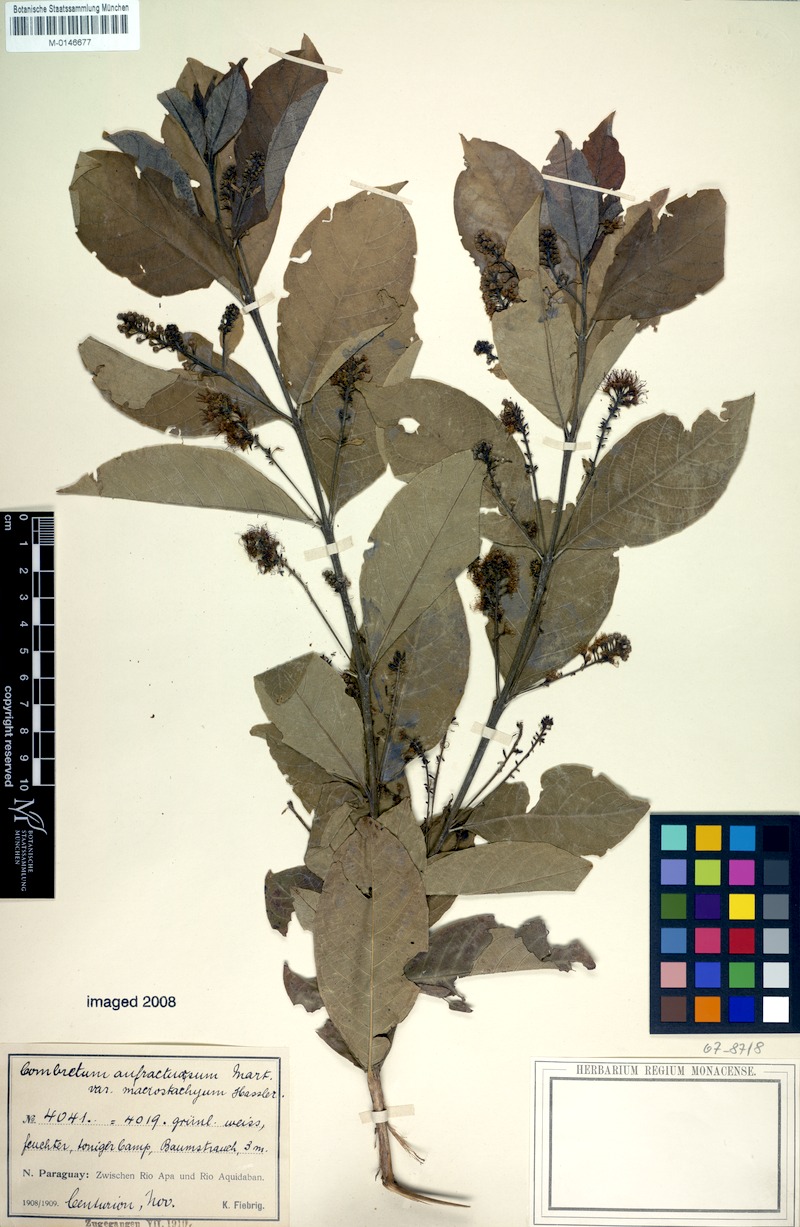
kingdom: Plantae
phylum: Tracheophyta
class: Magnoliopsida
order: Myrtales
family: Combretaceae
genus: Combretum
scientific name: Combretum duarteanum
